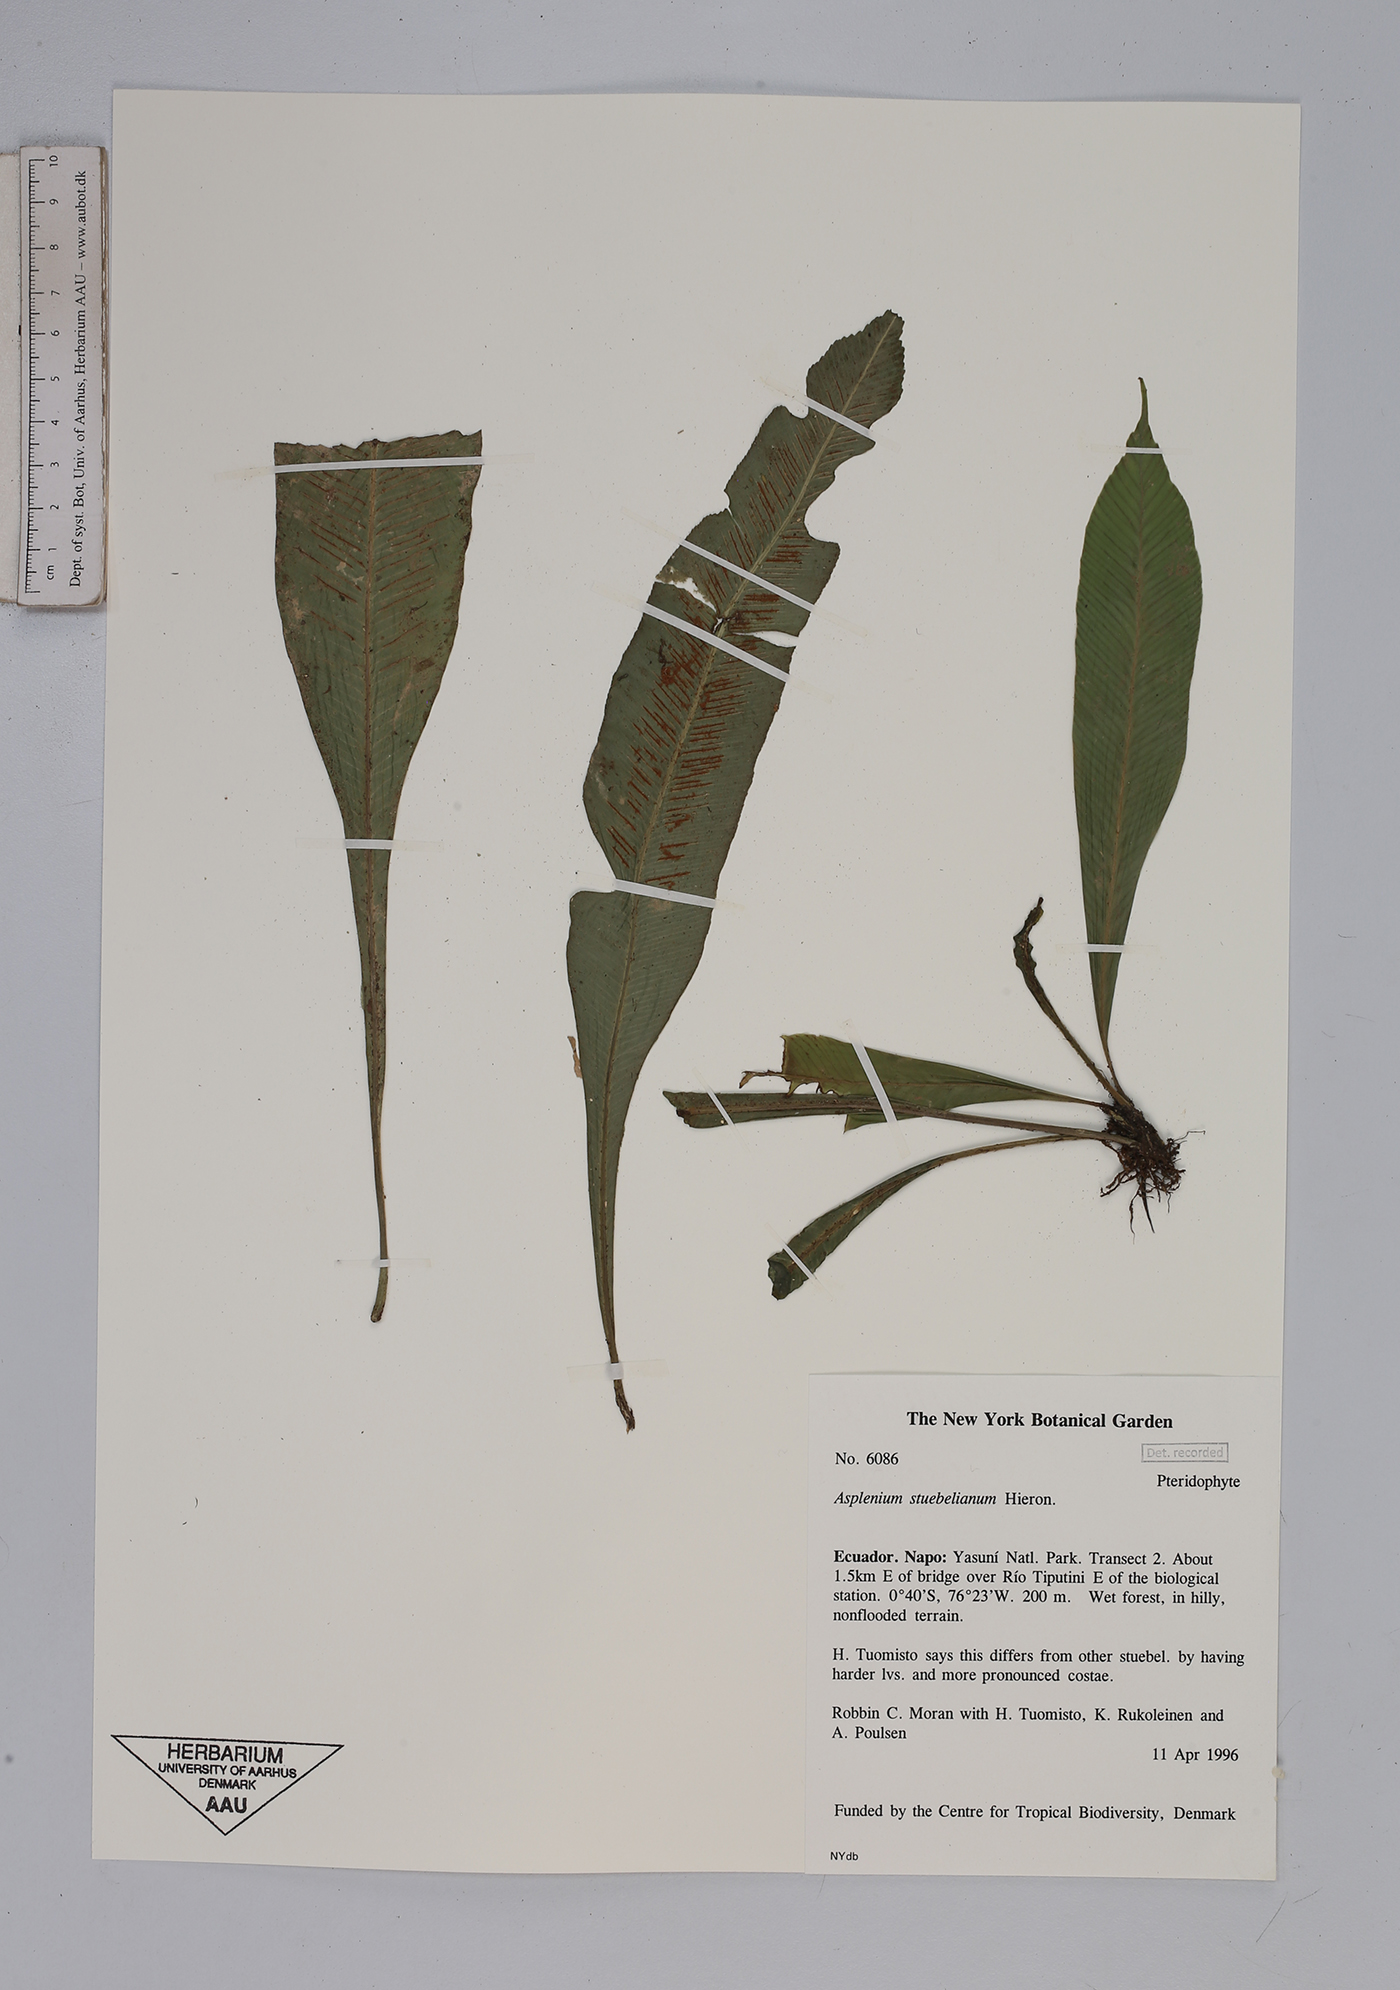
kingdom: Plantae
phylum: Tracheophyta
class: Polypodiopsida
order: Polypodiales
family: Aspleniaceae
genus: Asplenium
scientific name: Asplenium stuebelianum
